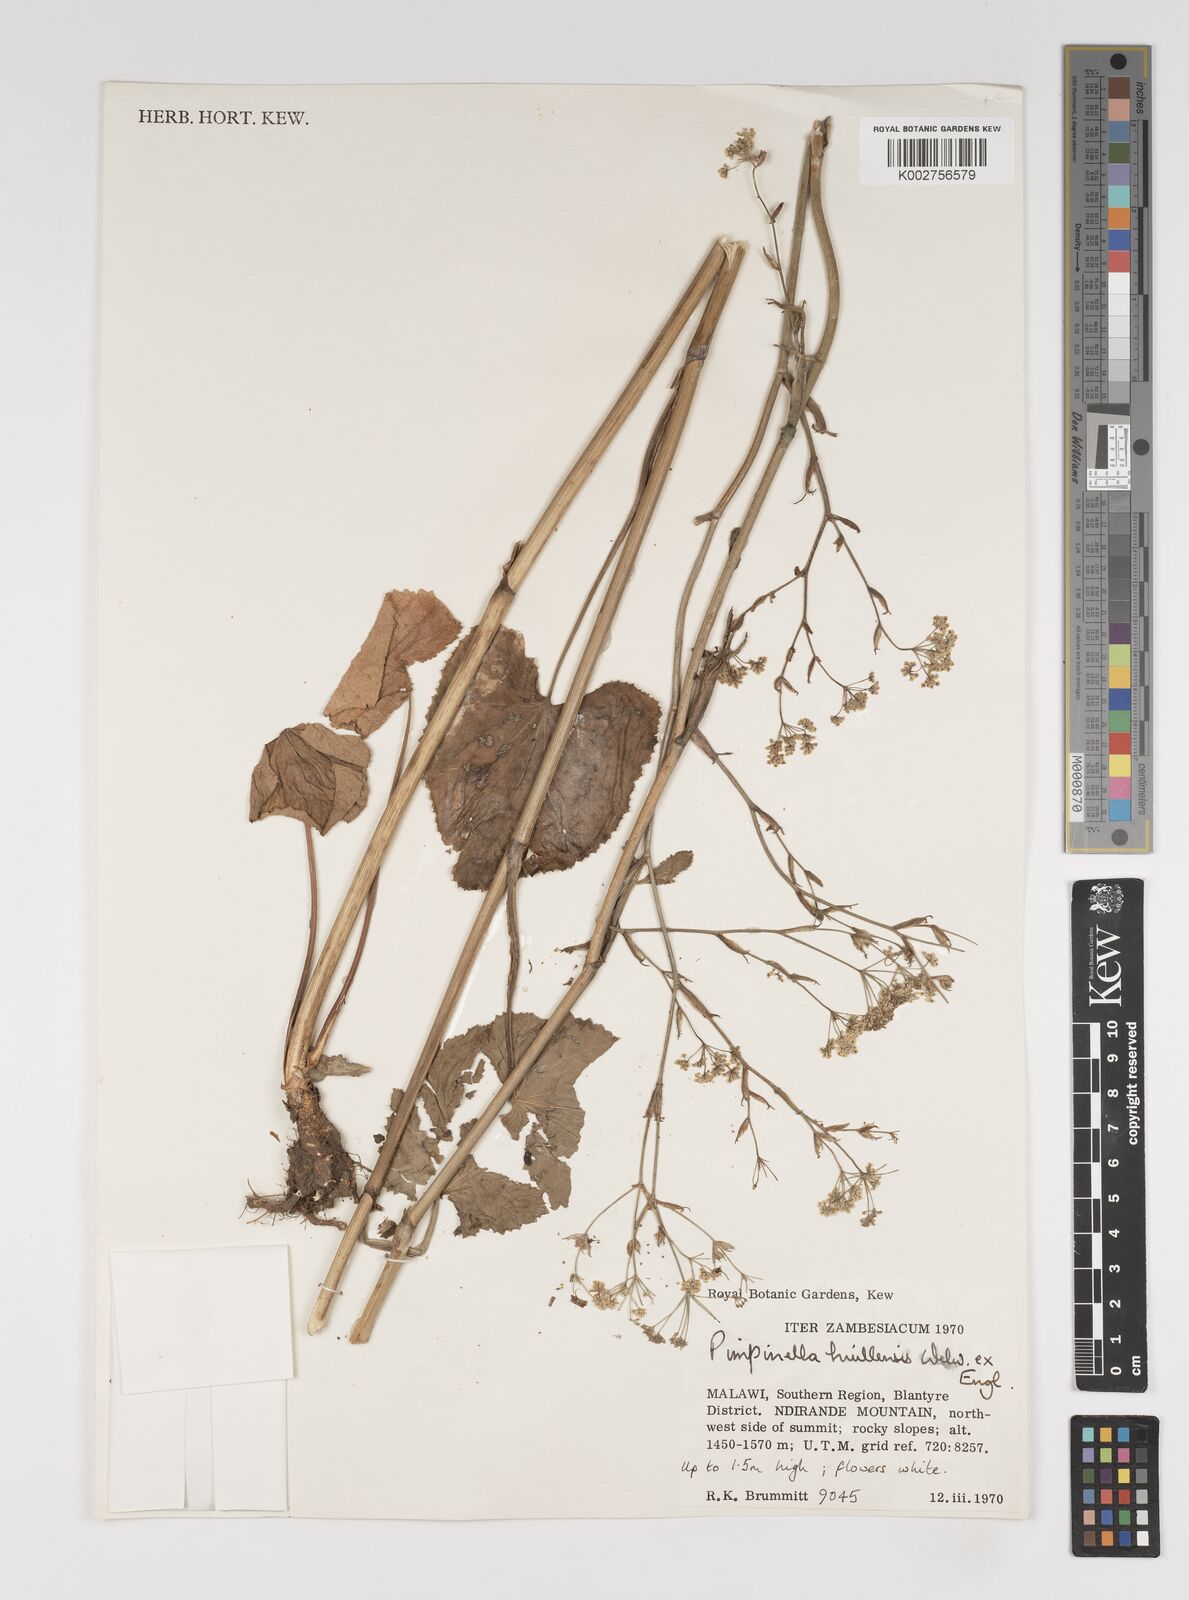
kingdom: Plantae
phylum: Tracheophyta
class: Magnoliopsida
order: Apiales
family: Apiaceae
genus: Pimpinella
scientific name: Pimpinella huillensis
